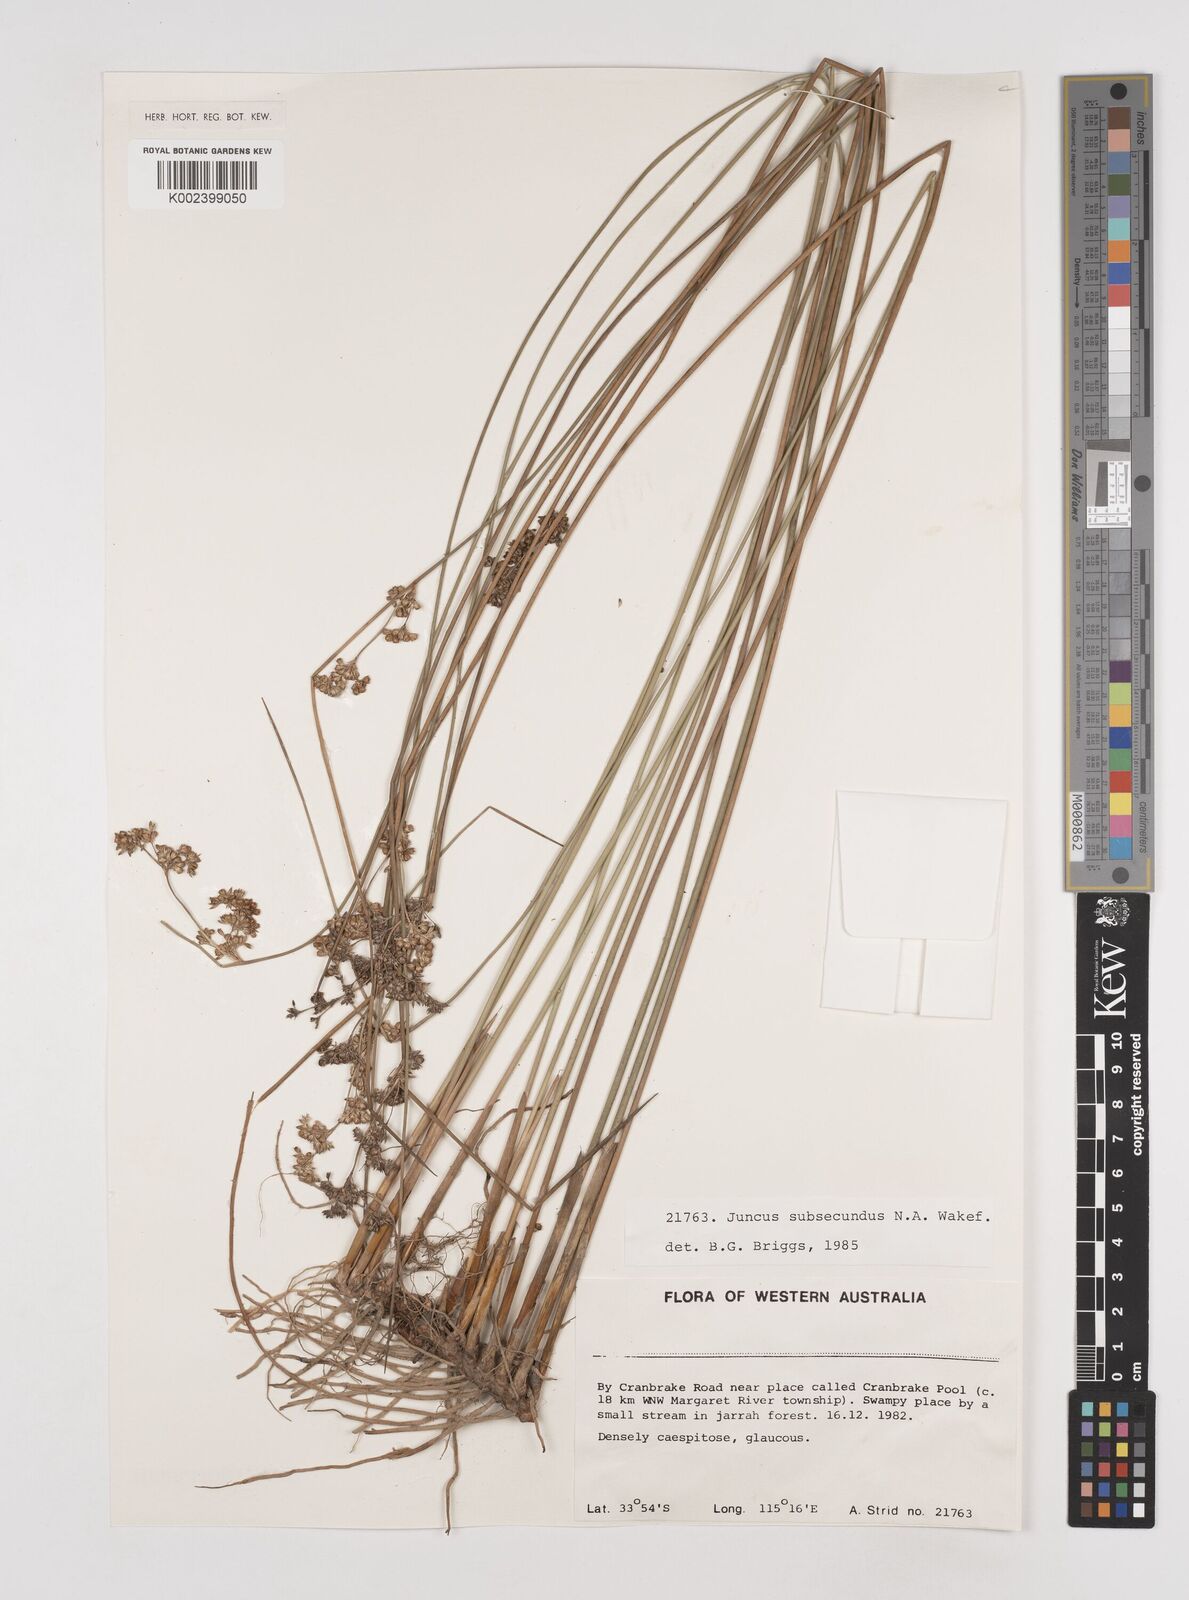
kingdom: Plantae
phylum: Tracheophyta
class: Liliopsida
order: Poales
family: Juncaceae
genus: Juncus
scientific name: Juncus subsecundus
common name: Fingered rush
